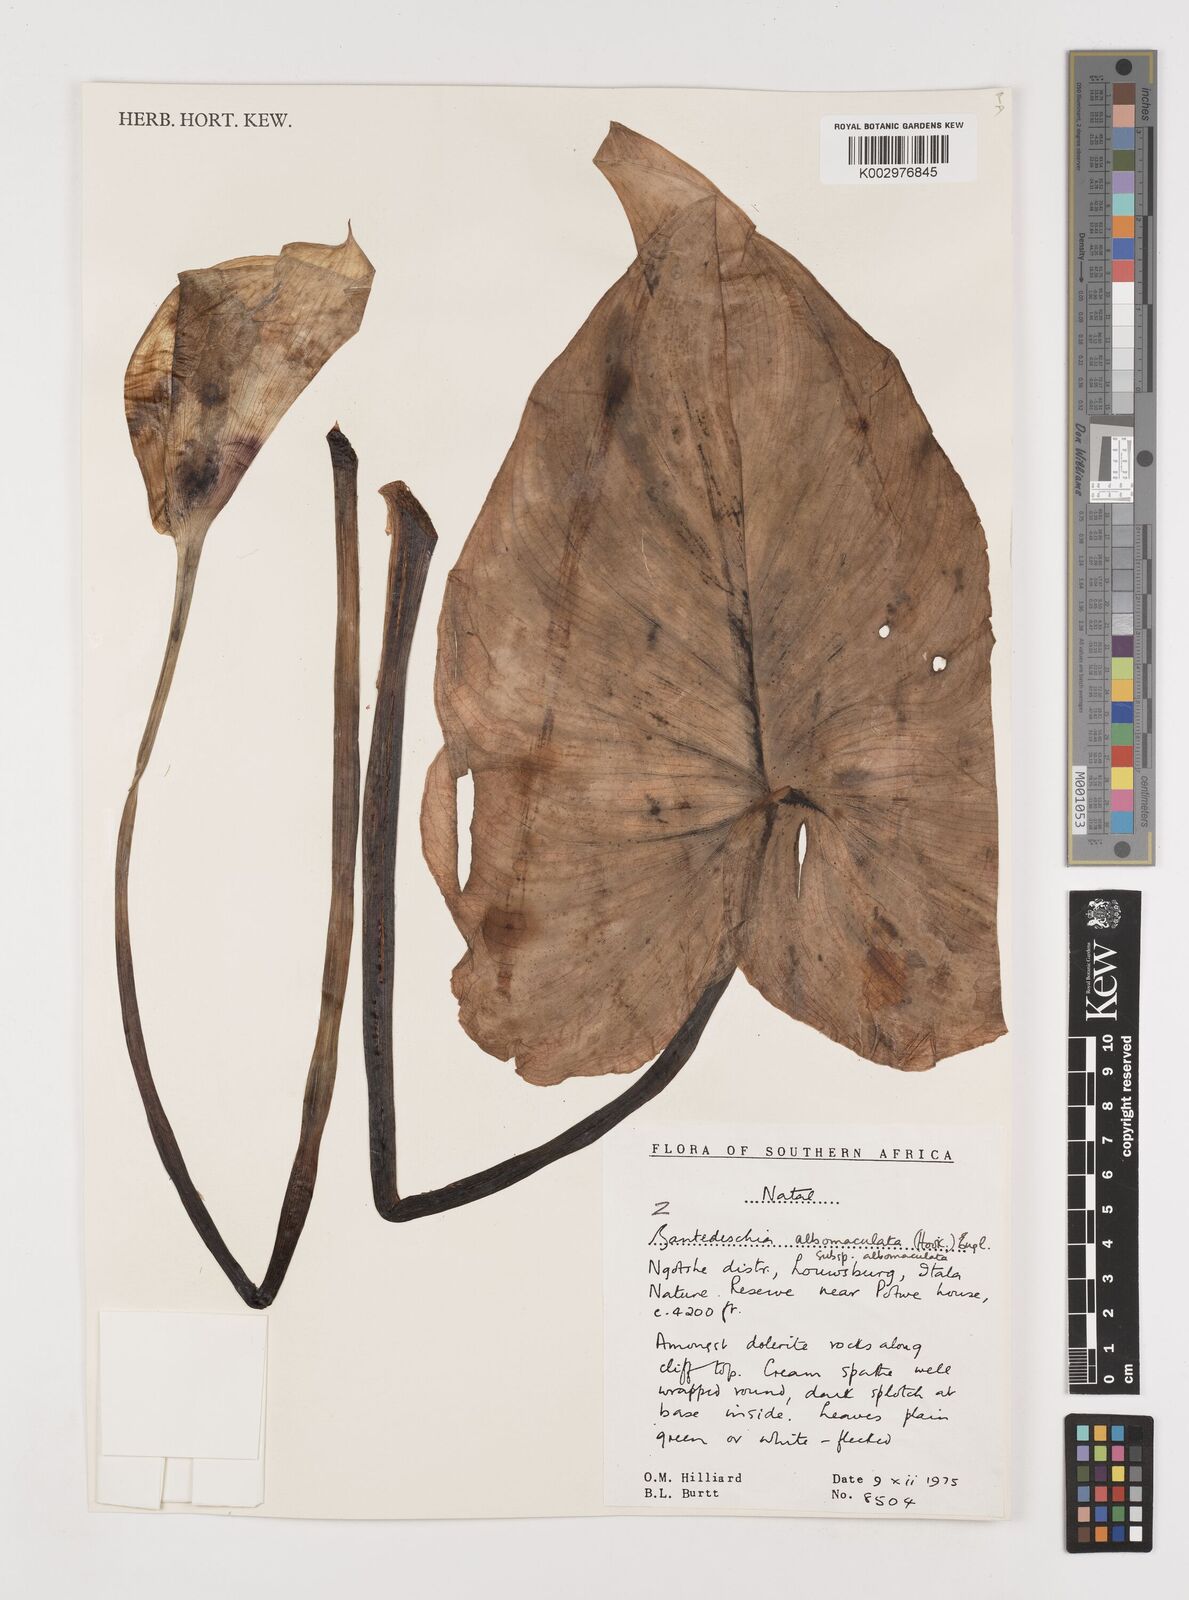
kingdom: Plantae
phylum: Tracheophyta
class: Liliopsida
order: Alismatales
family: Araceae
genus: Zantedeschia
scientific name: Zantedeschia albomaculata
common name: Spotted calla lily
